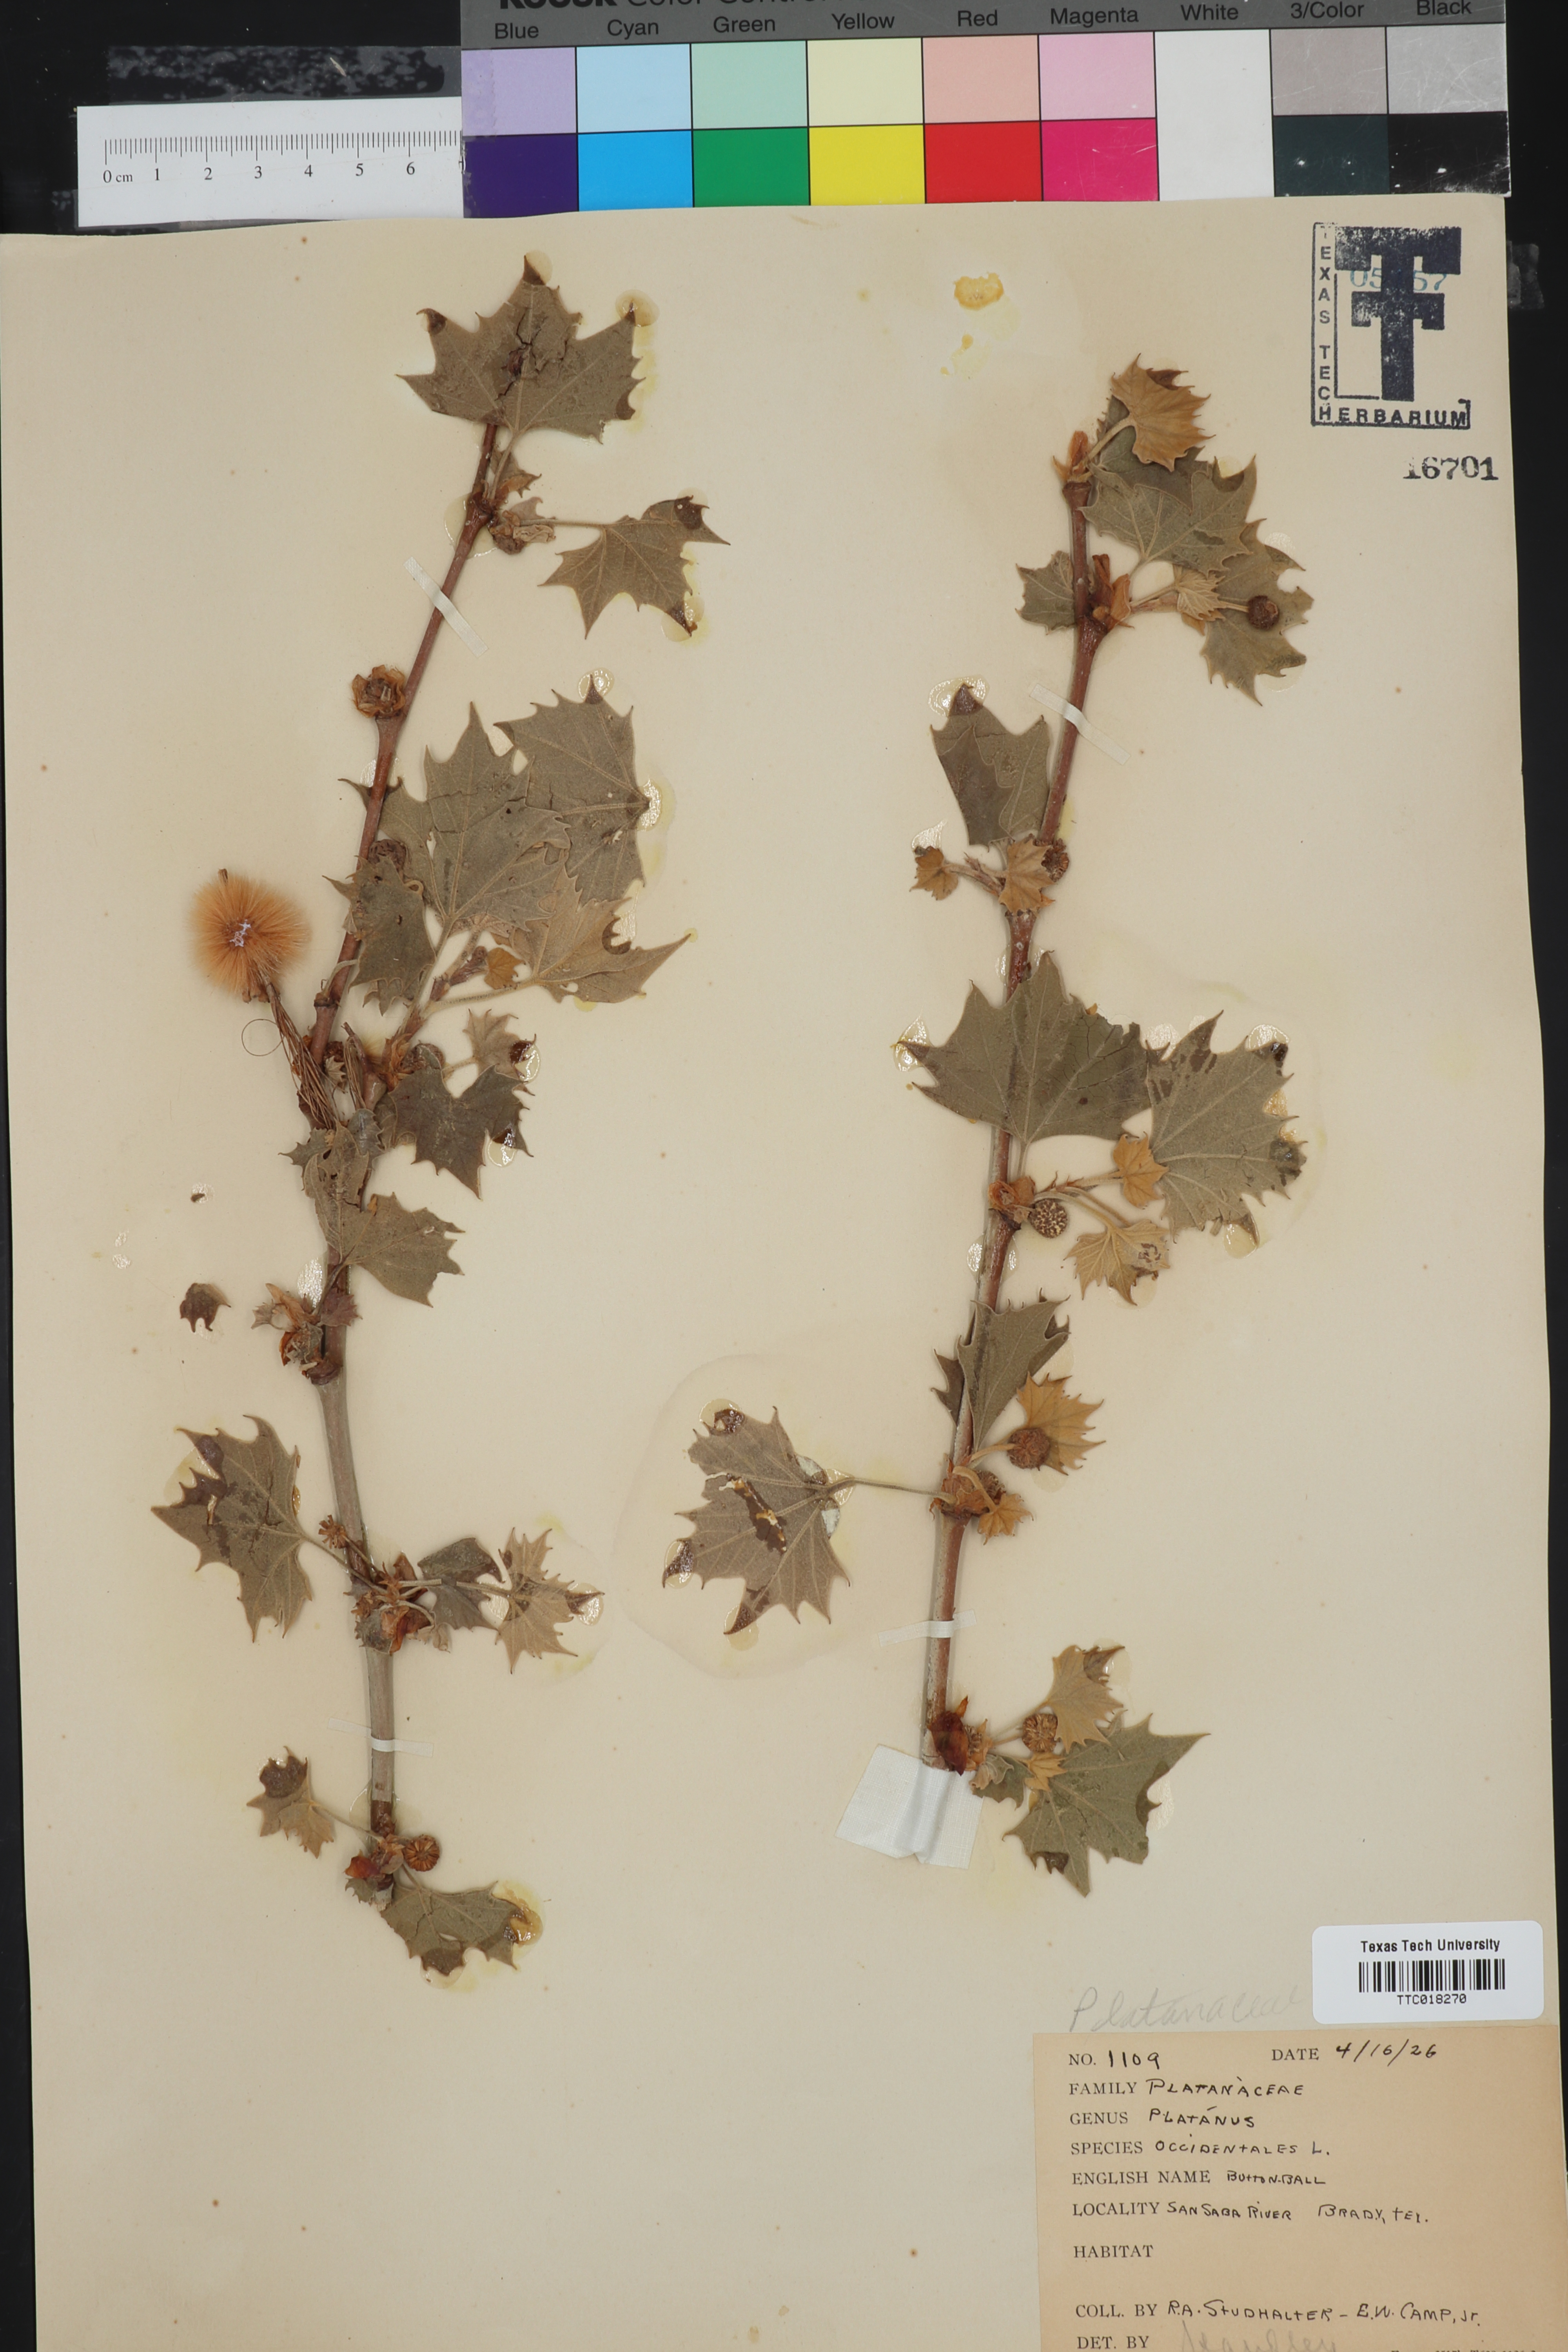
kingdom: Plantae
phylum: Tracheophyta
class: Magnoliopsida
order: Proteales
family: Platanaceae
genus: Platanus
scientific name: Platanus occidentalis
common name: American sycamore
